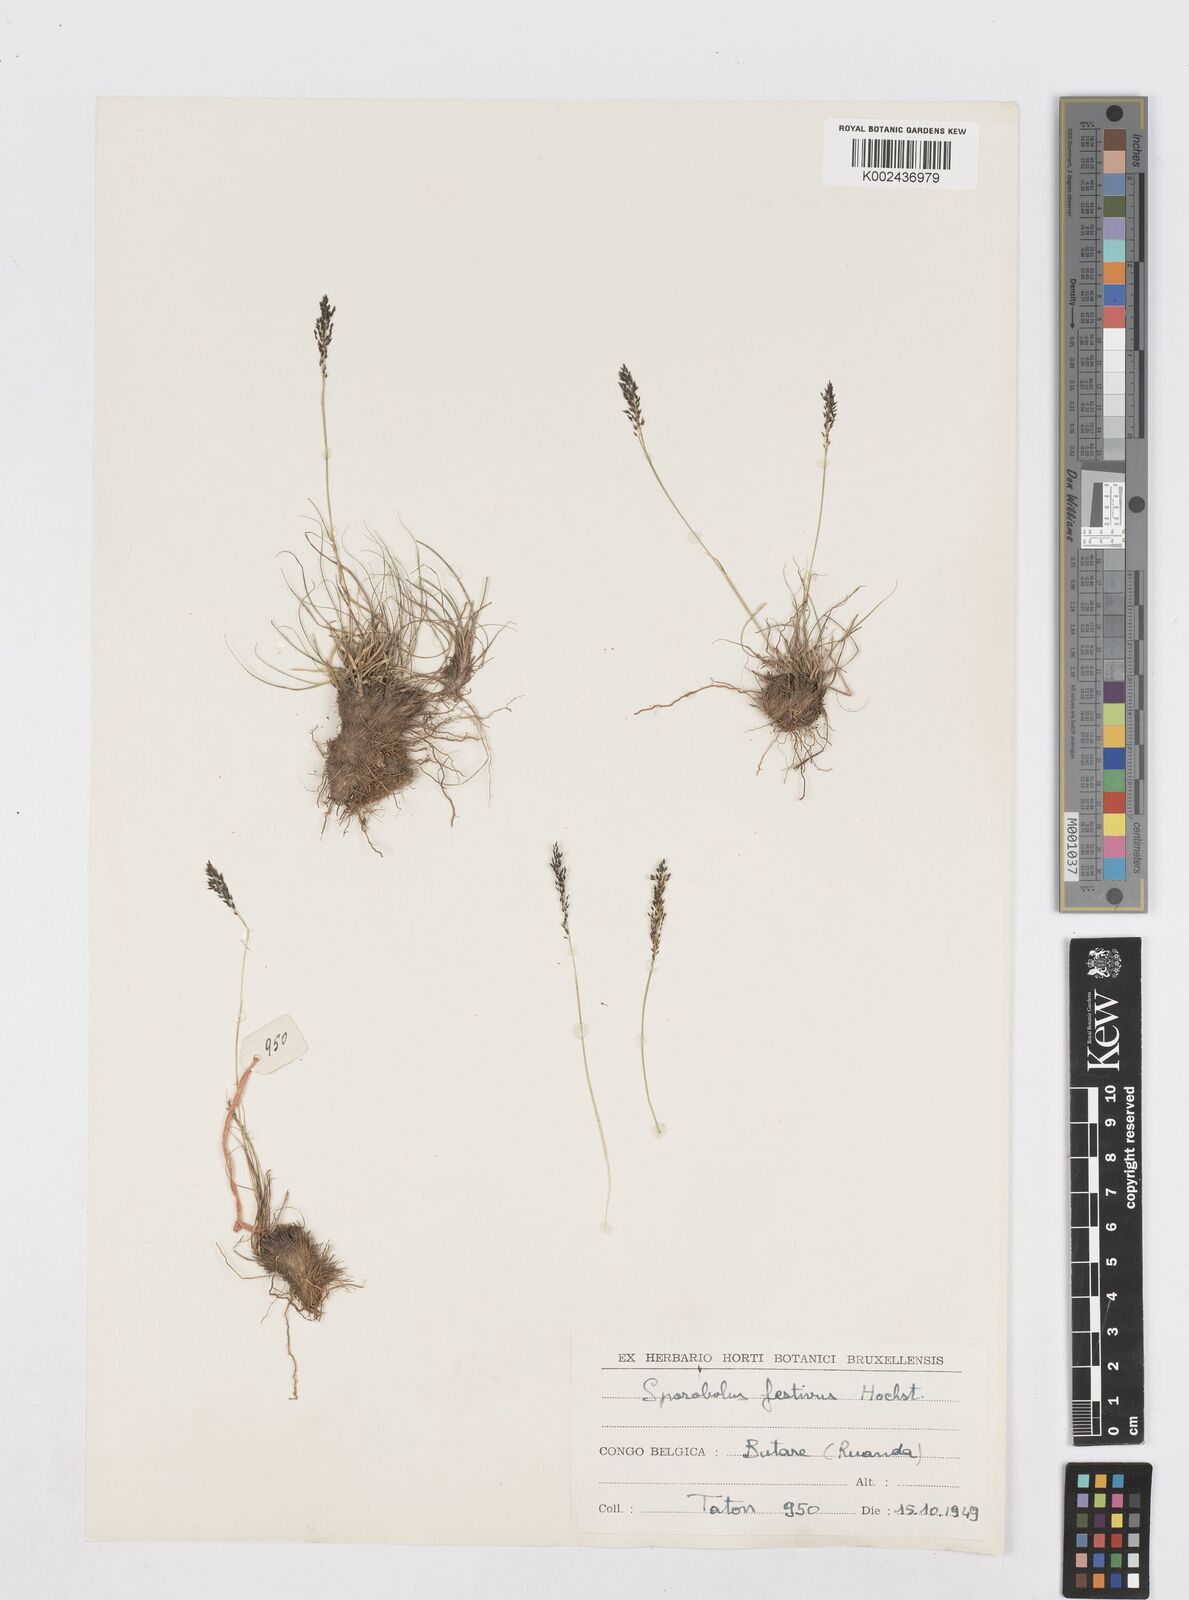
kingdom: Plantae
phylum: Tracheophyta
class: Liliopsida
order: Poales
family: Poaceae
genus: Sporobolus
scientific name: Sporobolus stapfianus
